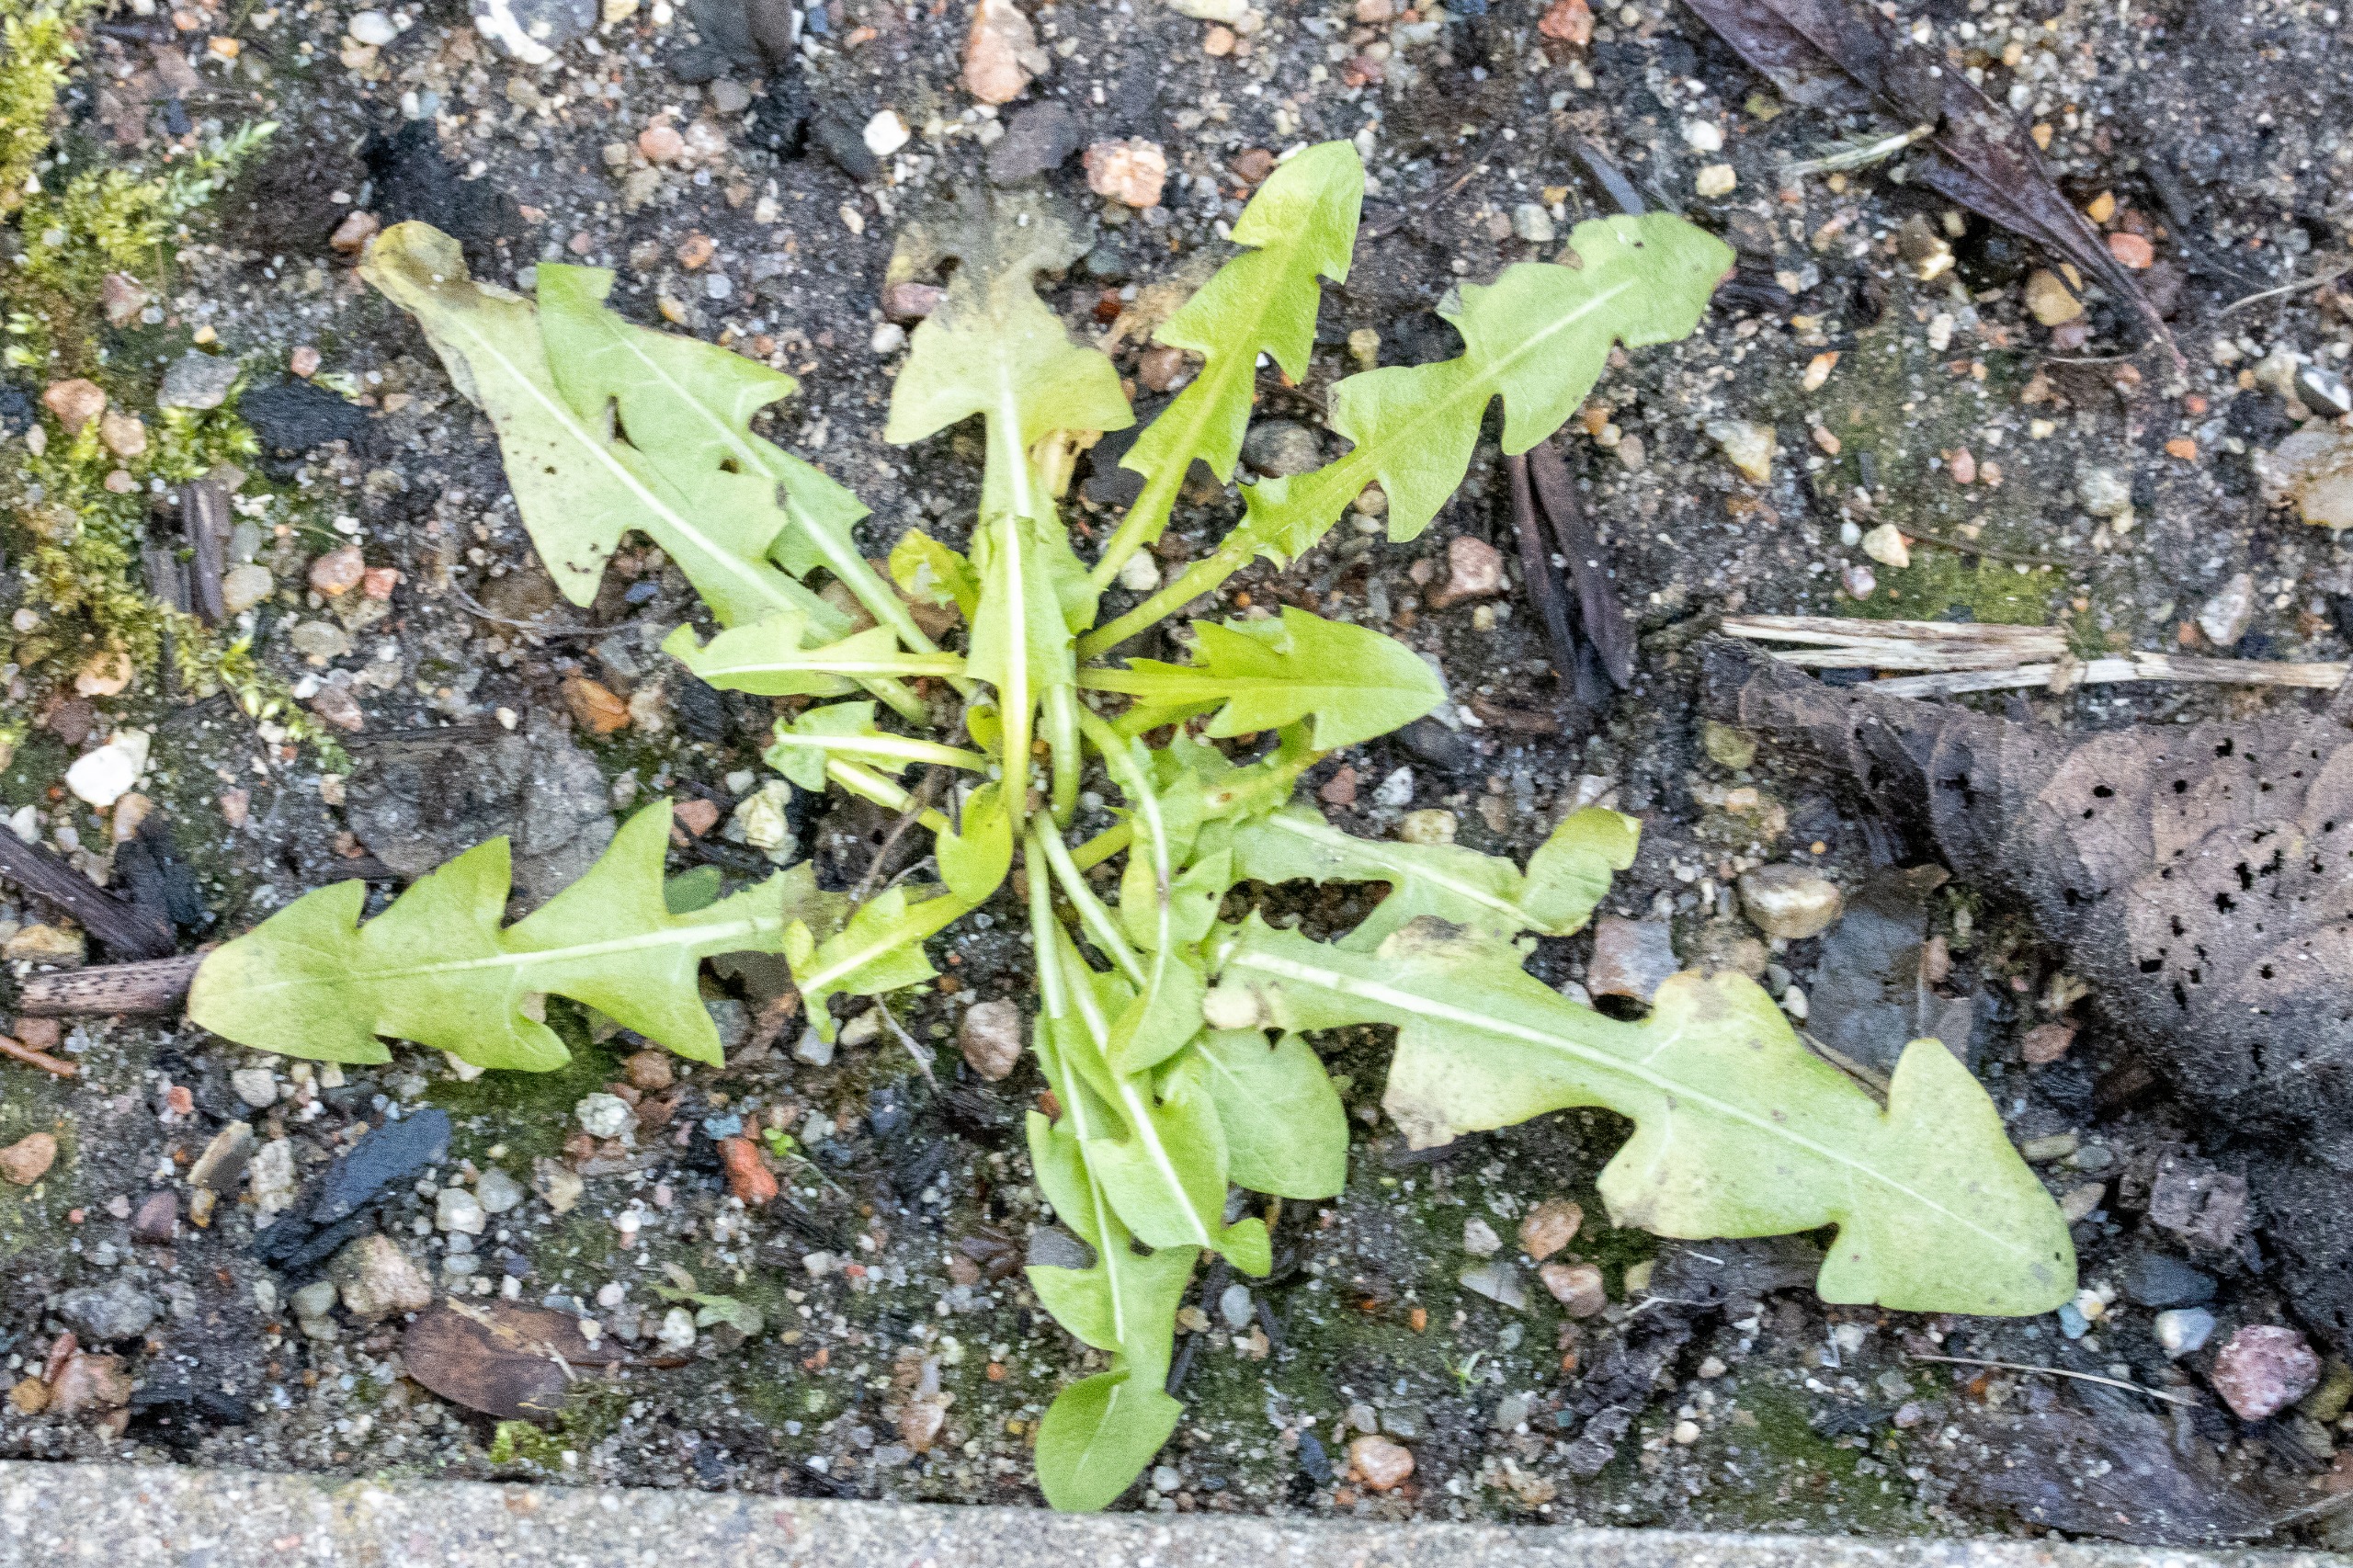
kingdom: Plantae
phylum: Tracheophyta
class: Magnoliopsida
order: Asterales
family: Asteraceae
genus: Taraxacum
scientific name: Taraxacum
